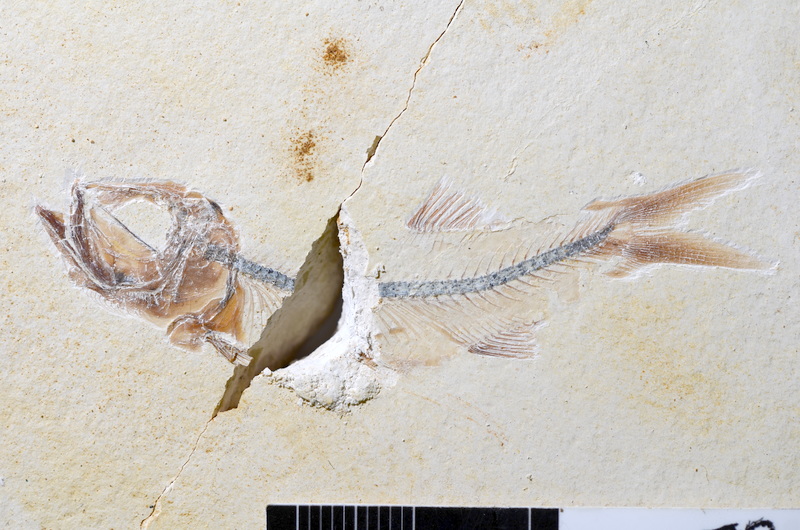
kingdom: Animalia
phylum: Chordata
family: Ascalaboidae
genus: Ebertichthys
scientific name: Ebertichthys ettlingensis
